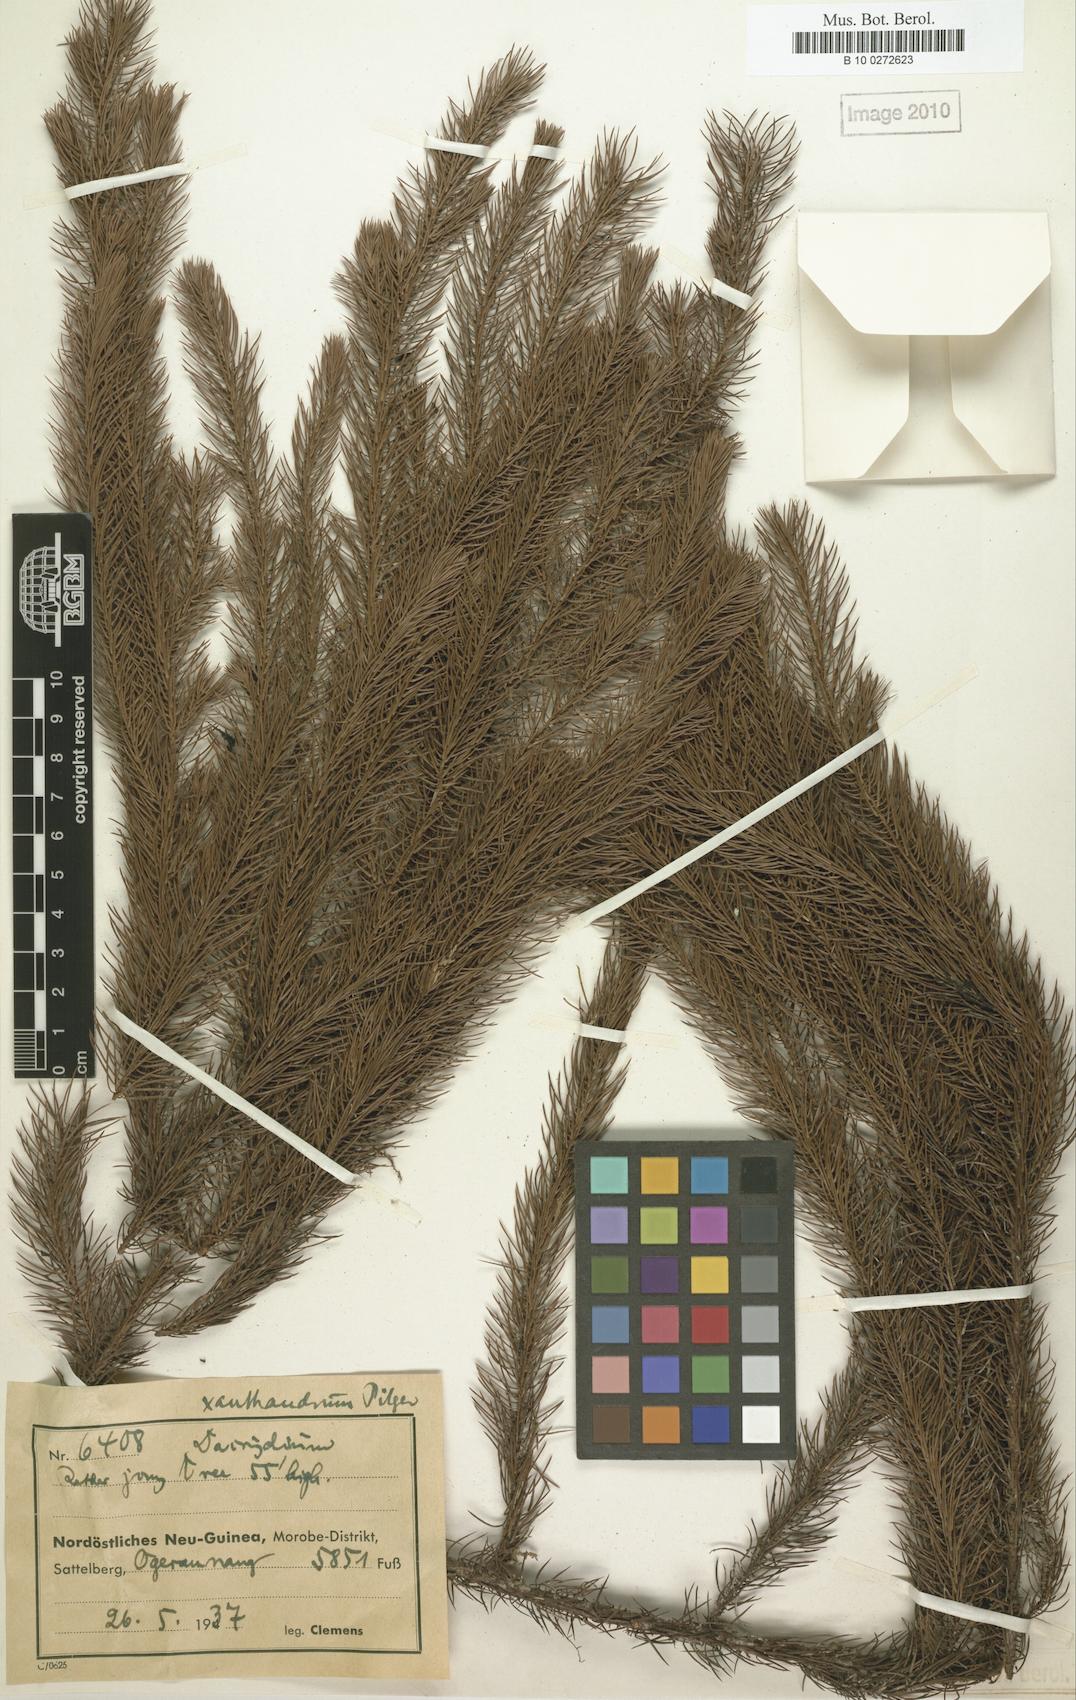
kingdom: Plantae
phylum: Tracheophyta
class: Pinopsida
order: Pinales
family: Podocarpaceae
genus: Dacrydium
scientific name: Dacrydium xanthandrum
